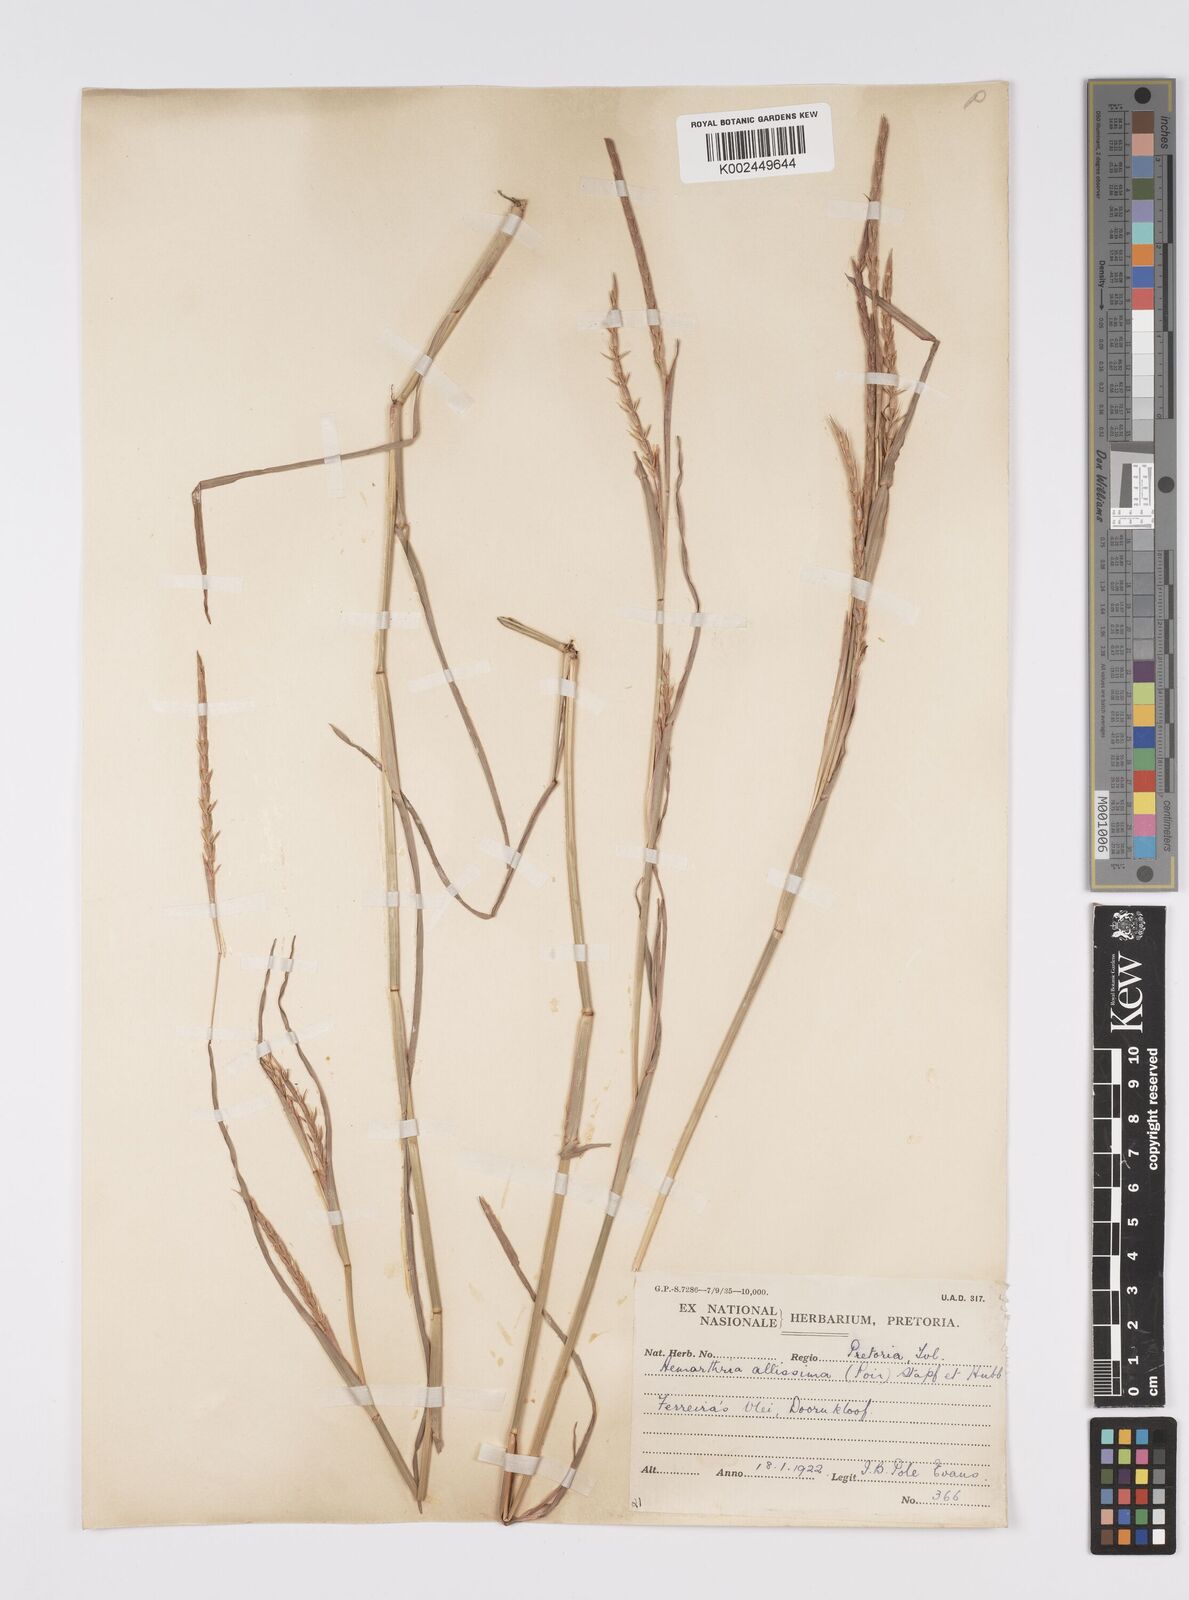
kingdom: Plantae
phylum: Tracheophyta
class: Liliopsida
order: Poales
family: Poaceae
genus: Hemarthria
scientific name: Hemarthria altissima
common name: African jointgrass
